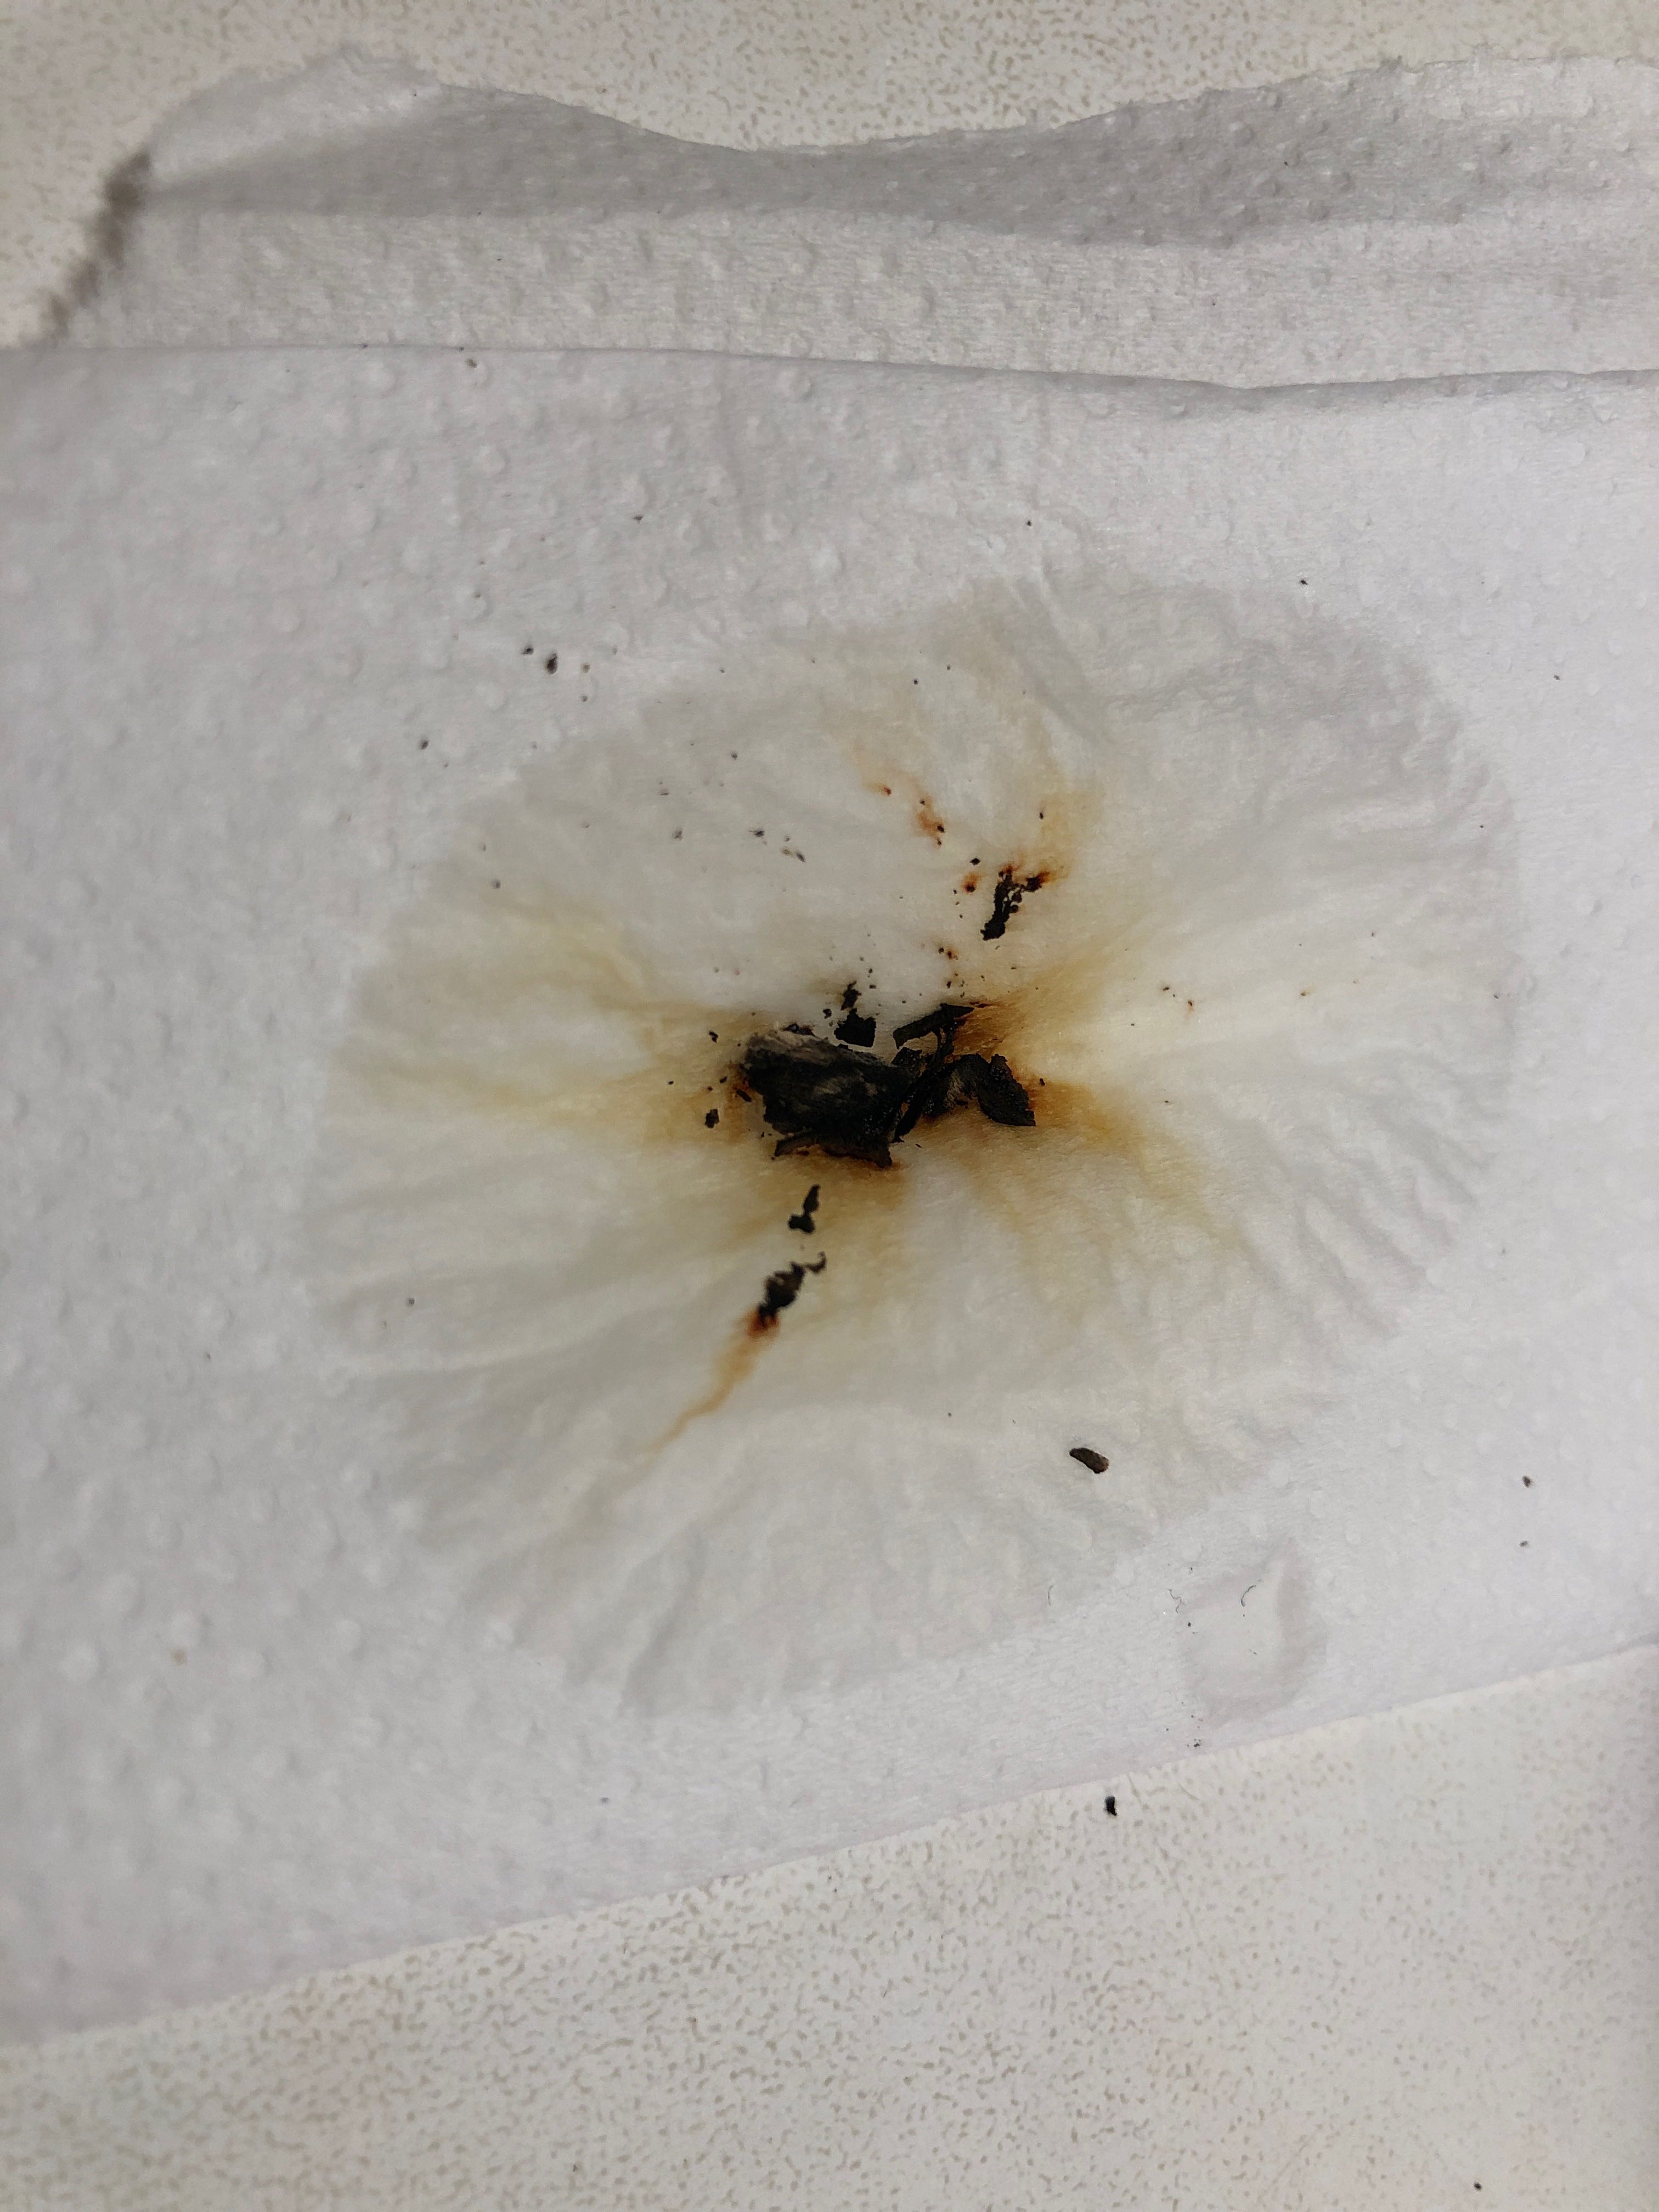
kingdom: Fungi
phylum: Ascomycota
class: Sordariomycetes
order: Xylariales
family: Hypoxylaceae
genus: Hypoxylon
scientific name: Hypoxylon petriniae
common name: nedsænket kulbær
